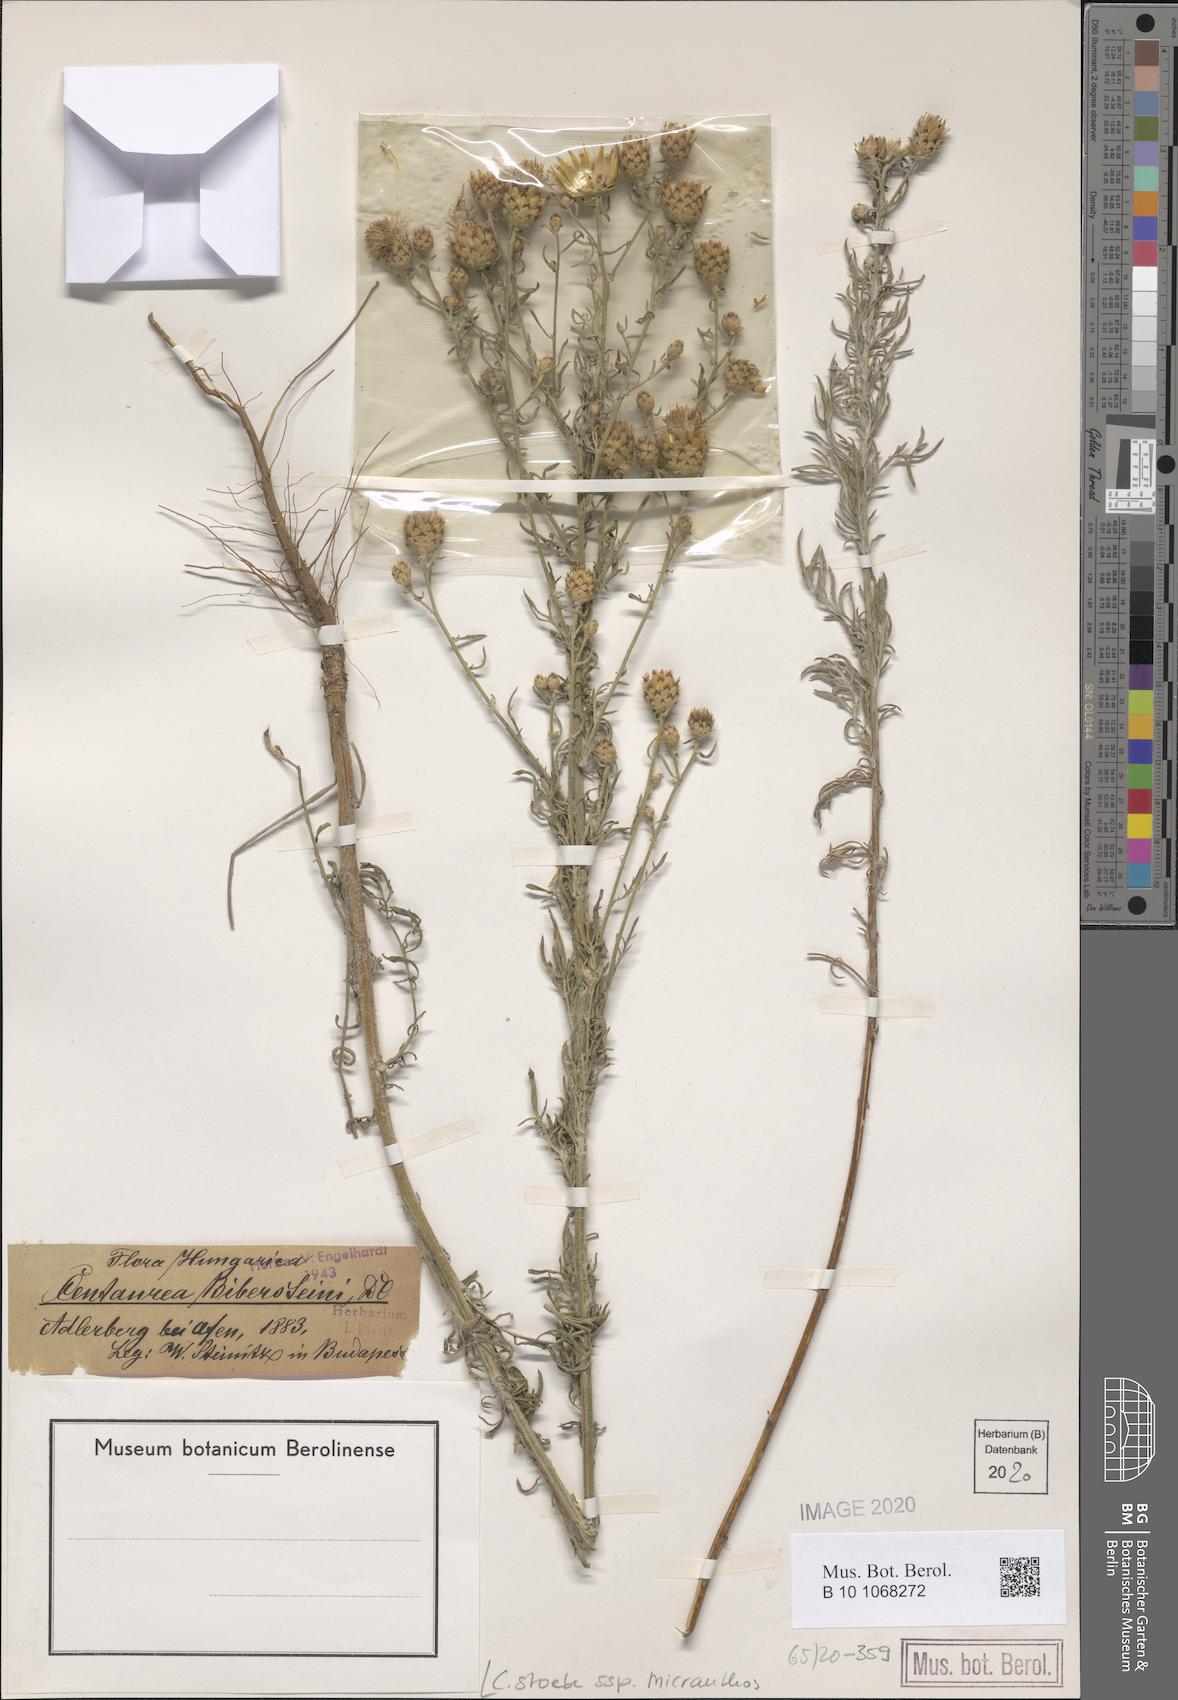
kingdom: Plantae
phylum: Tracheophyta
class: Magnoliopsida
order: Asterales
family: Asteraceae
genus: Centaurea
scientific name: Centaurea australis
